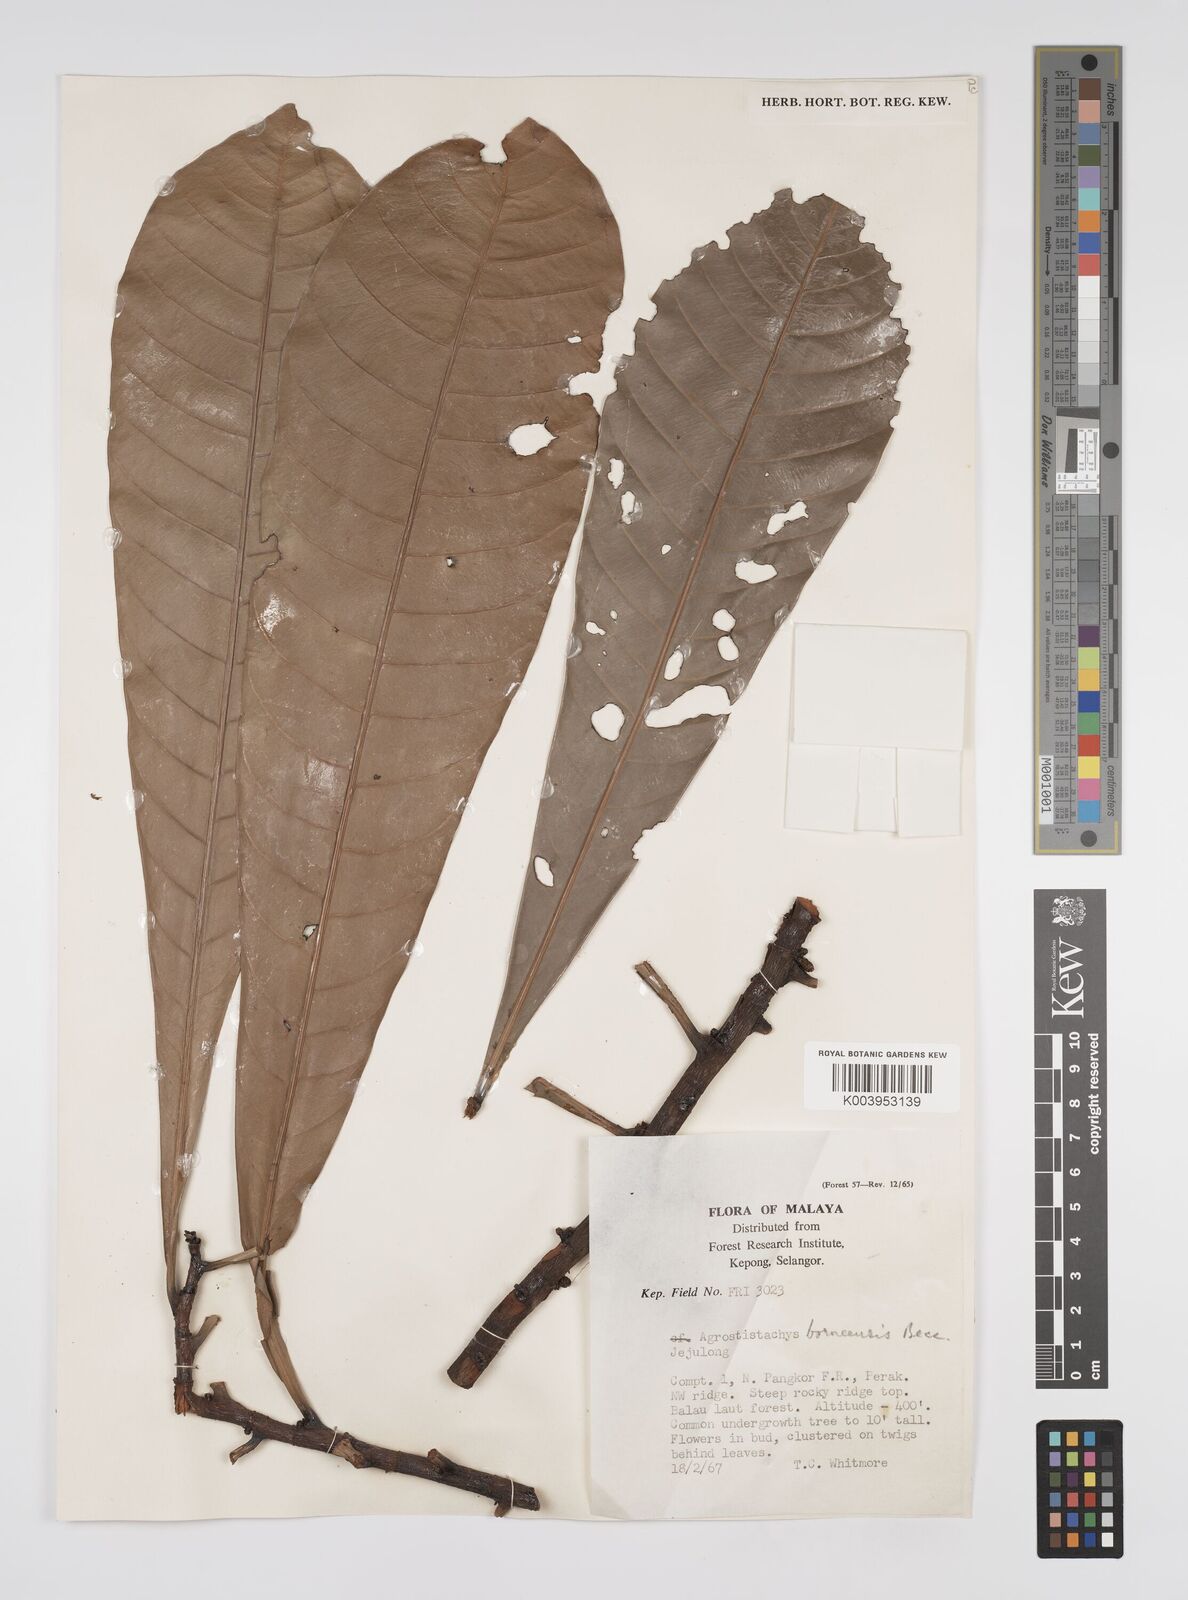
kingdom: Plantae
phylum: Tracheophyta
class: Magnoliopsida
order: Malpighiales
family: Euphorbiaceae
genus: Agrostistachys
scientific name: Agrostistachys borneensis
